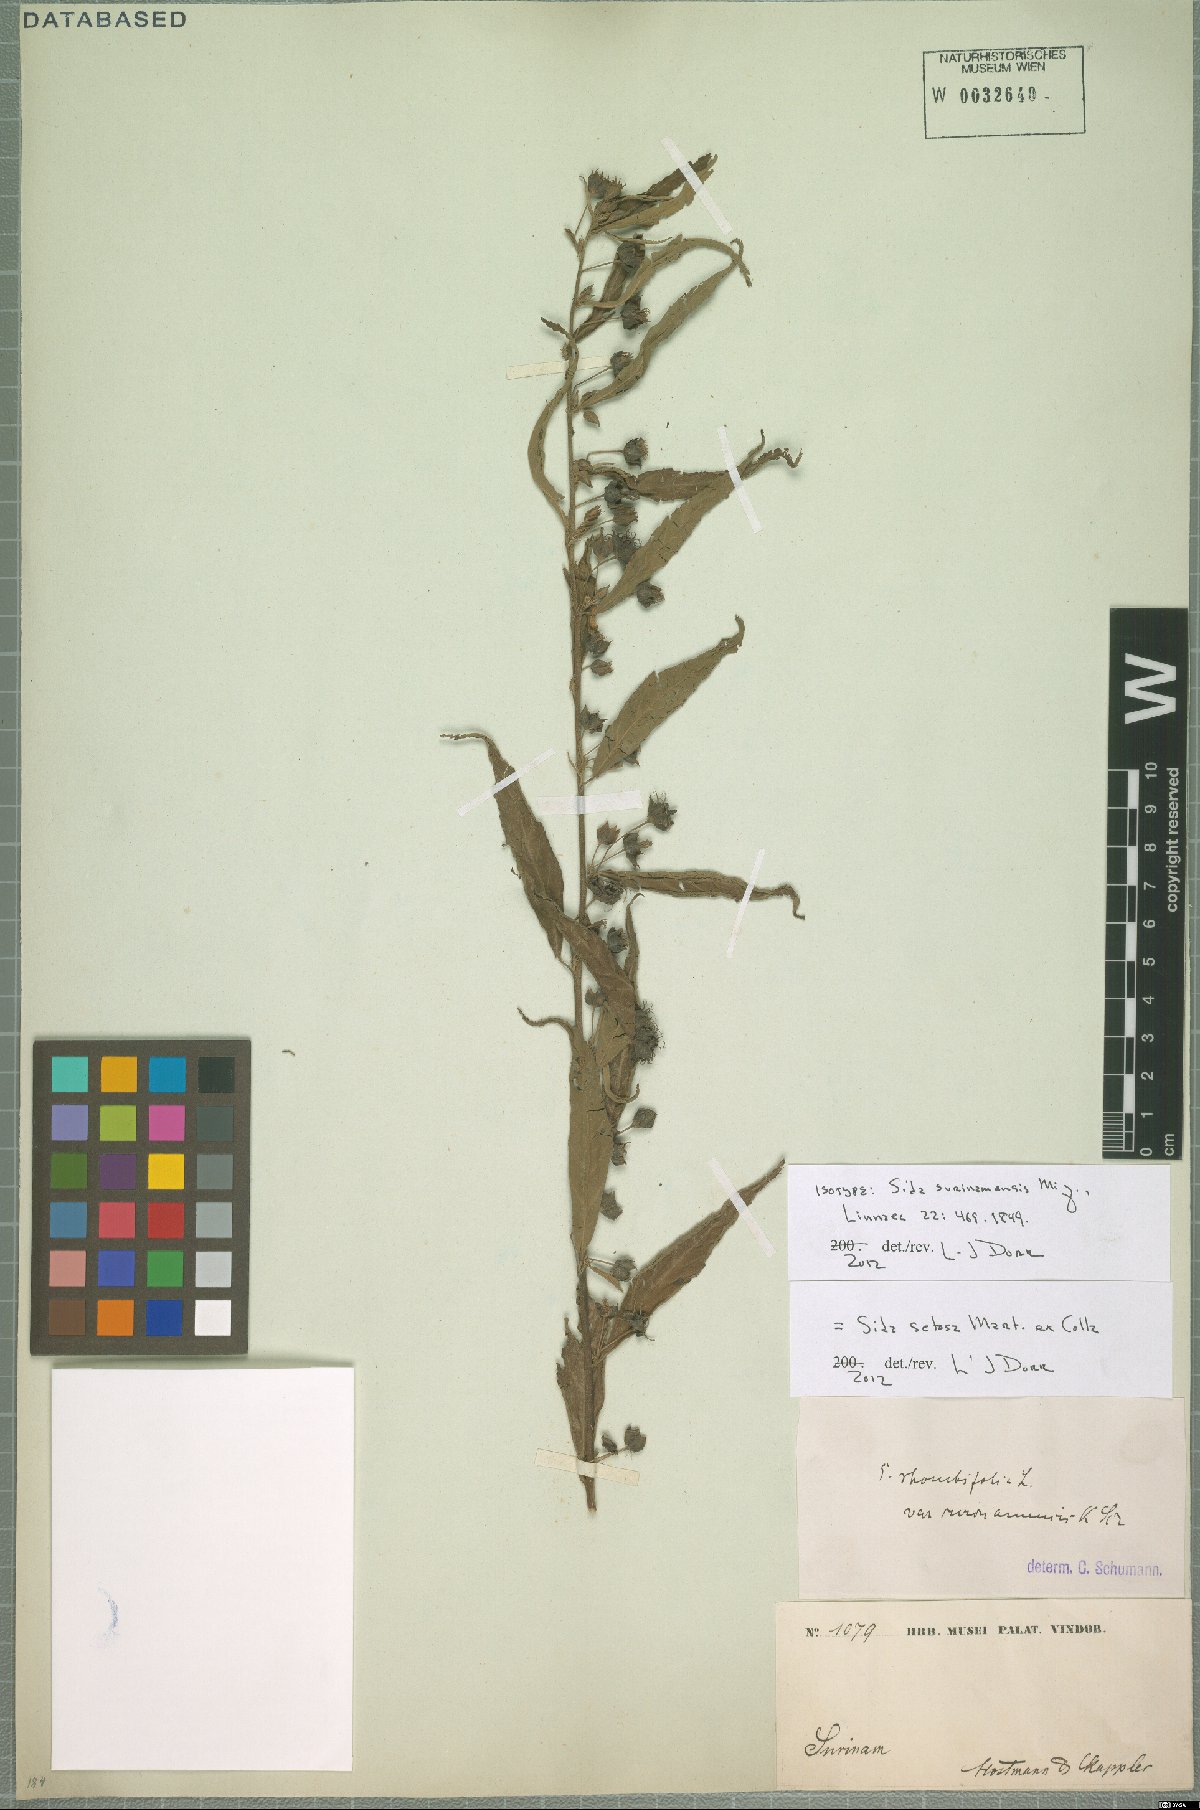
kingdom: Plantae
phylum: Tracheophyta
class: Magnoliopsida
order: Malvales
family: Malvaceae
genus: Sida
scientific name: Sida setosa
